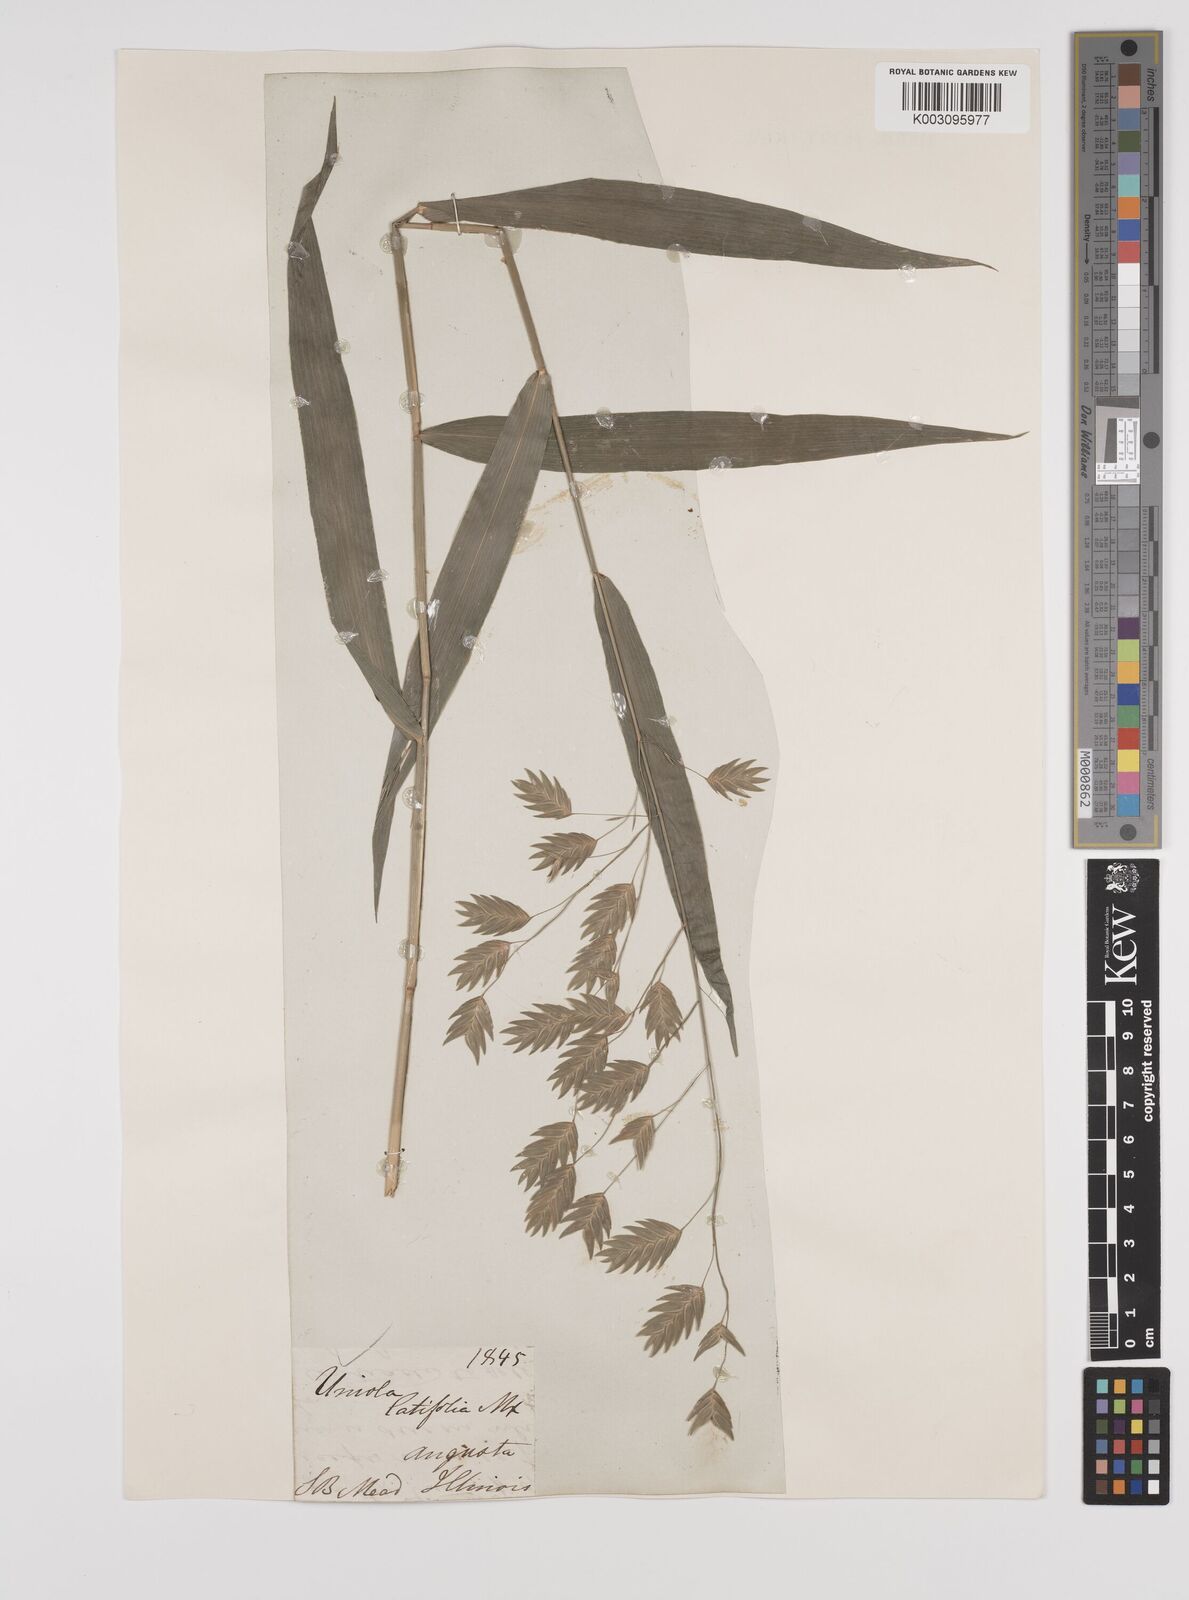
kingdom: Plantae
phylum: Tracheophyta
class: Liliopsida
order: Poales
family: Poaceae
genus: Chasmanthium
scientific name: Chasmanthium latifolium
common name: Broad-leaved chasmanthium
